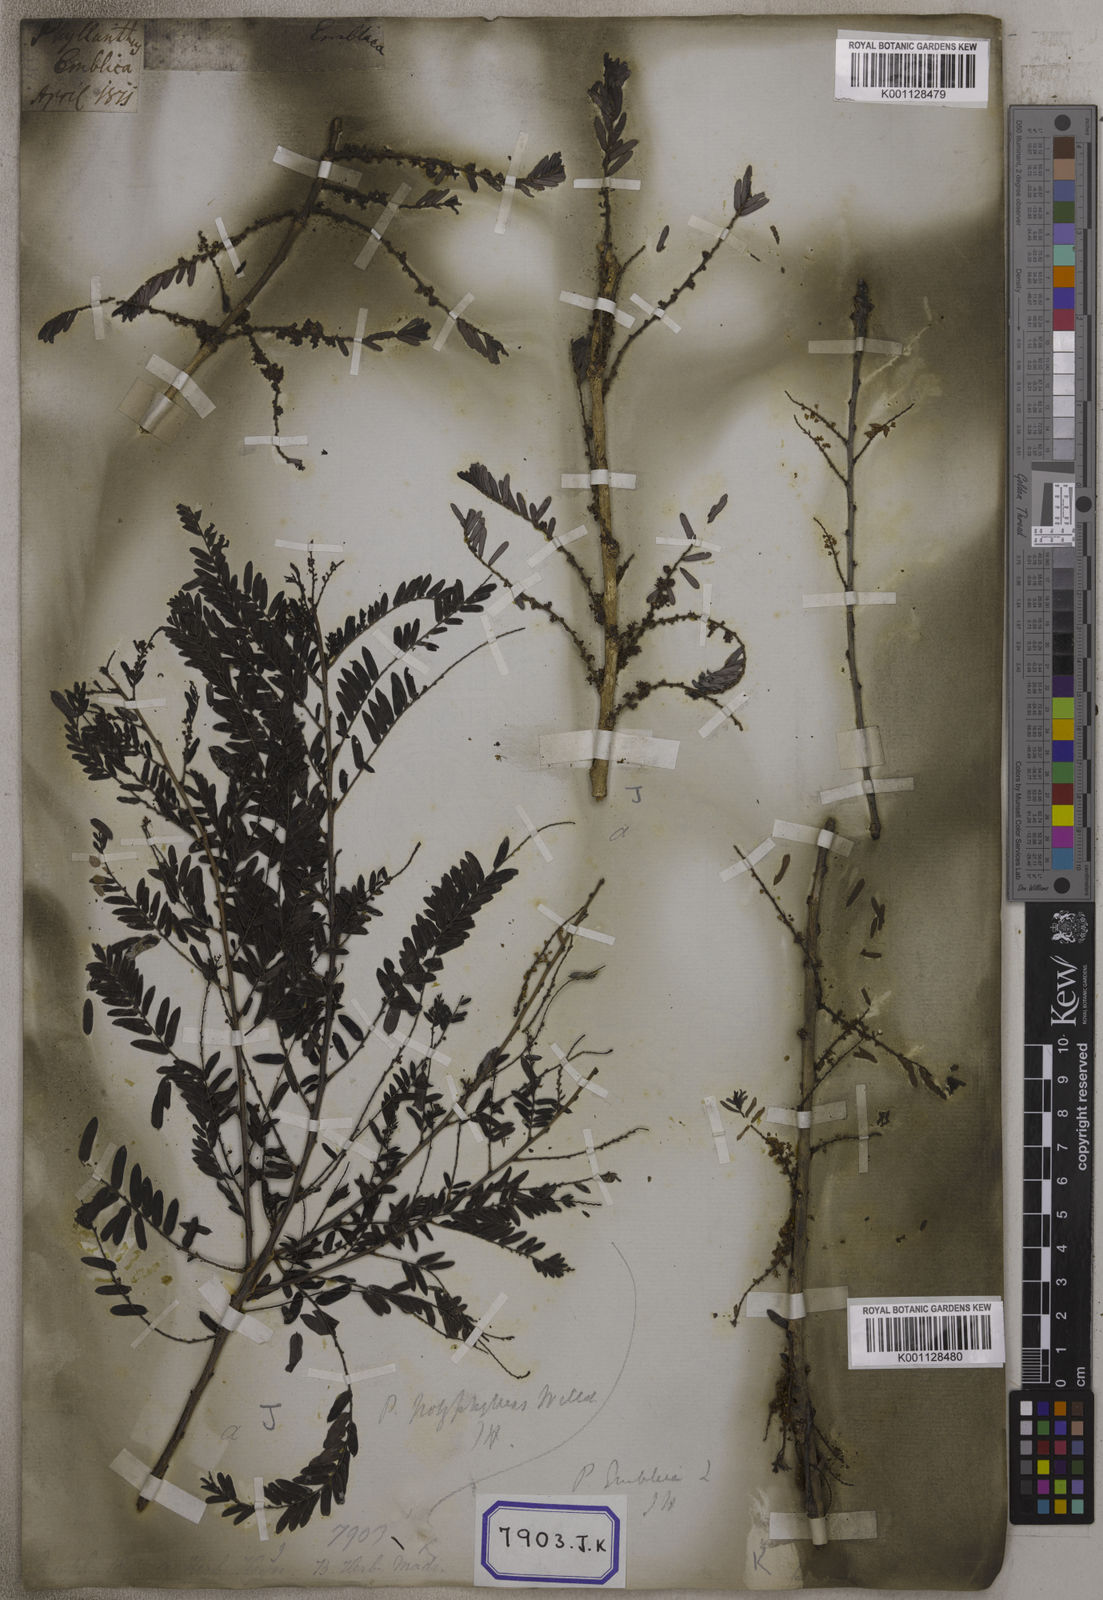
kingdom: Plantae
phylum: Tracheophyta
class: Magnoliopsida
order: Malpighiales
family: Euphorbiaceae
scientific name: Euphorbiaceae
